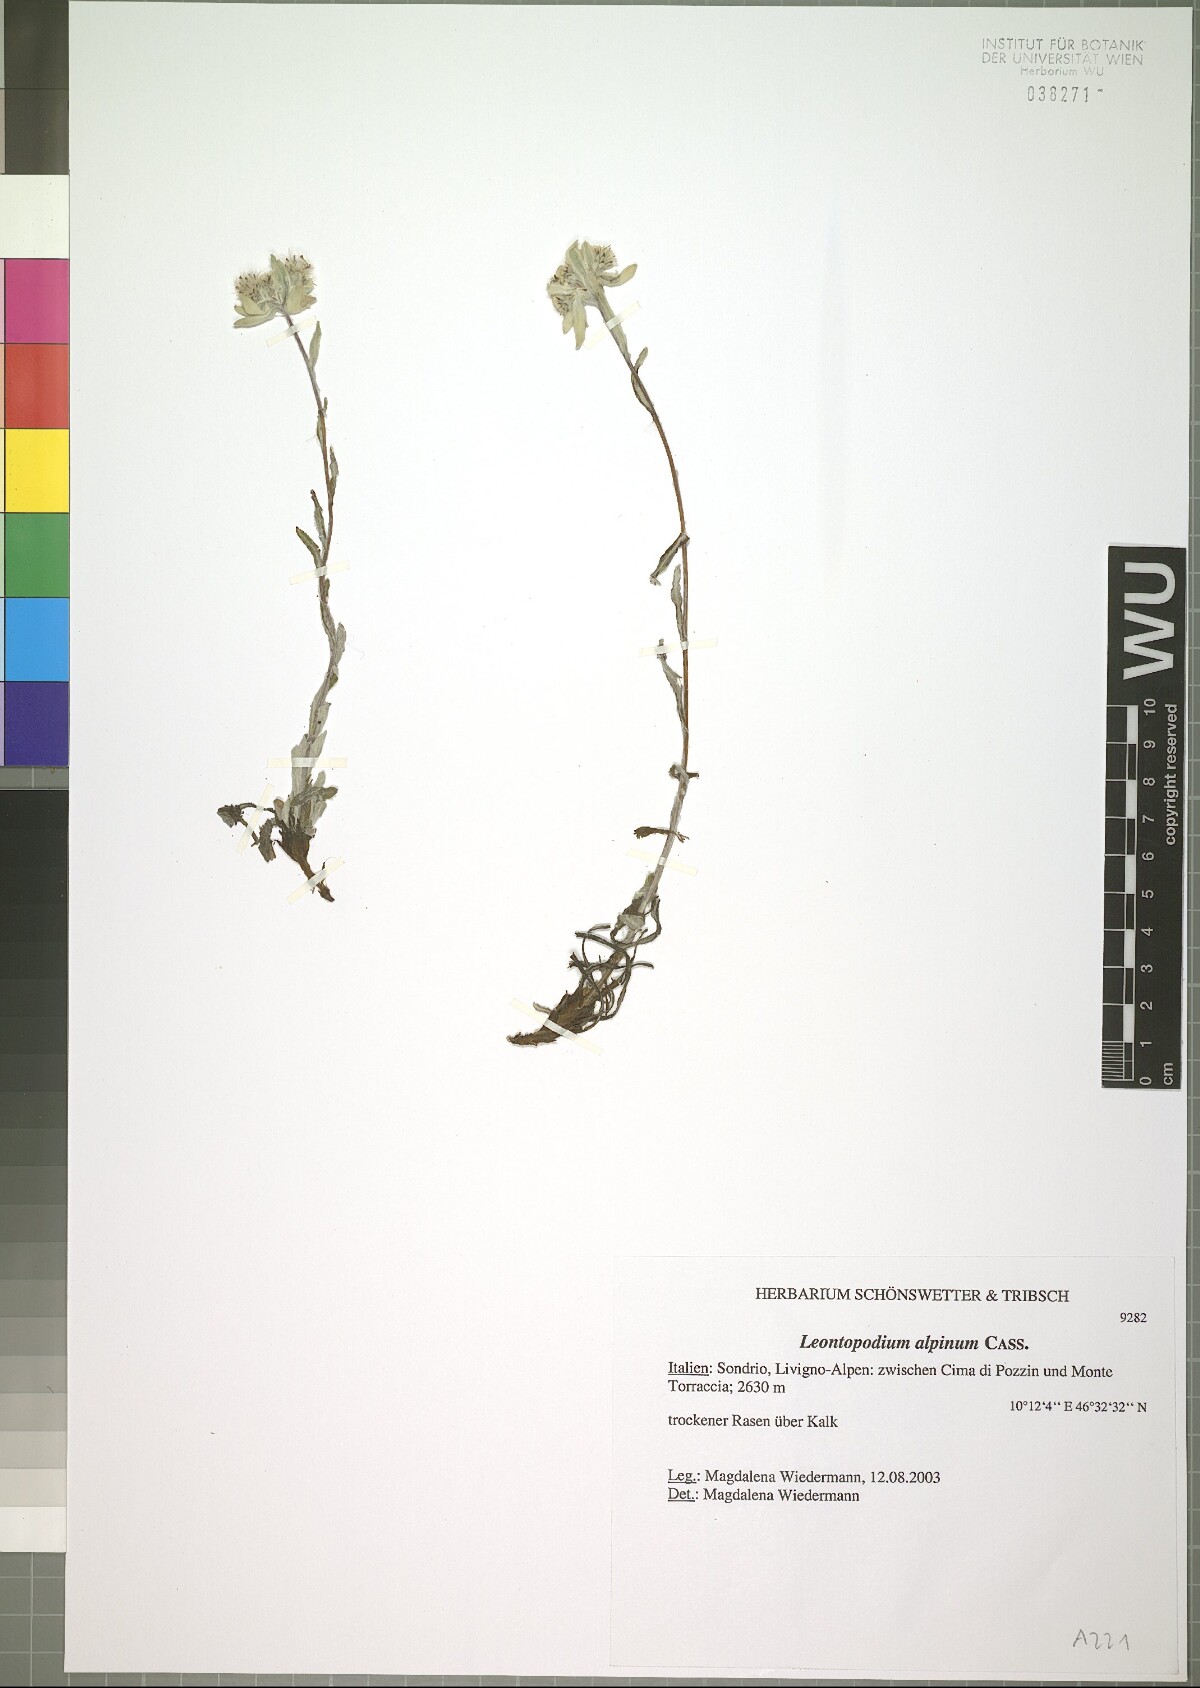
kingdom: Plantae
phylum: Tracheophyta
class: Magnoliopsida
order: Asterales
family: Asteraceae
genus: Leontopodium
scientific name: Leontopodium nivale
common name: Edelweiss
